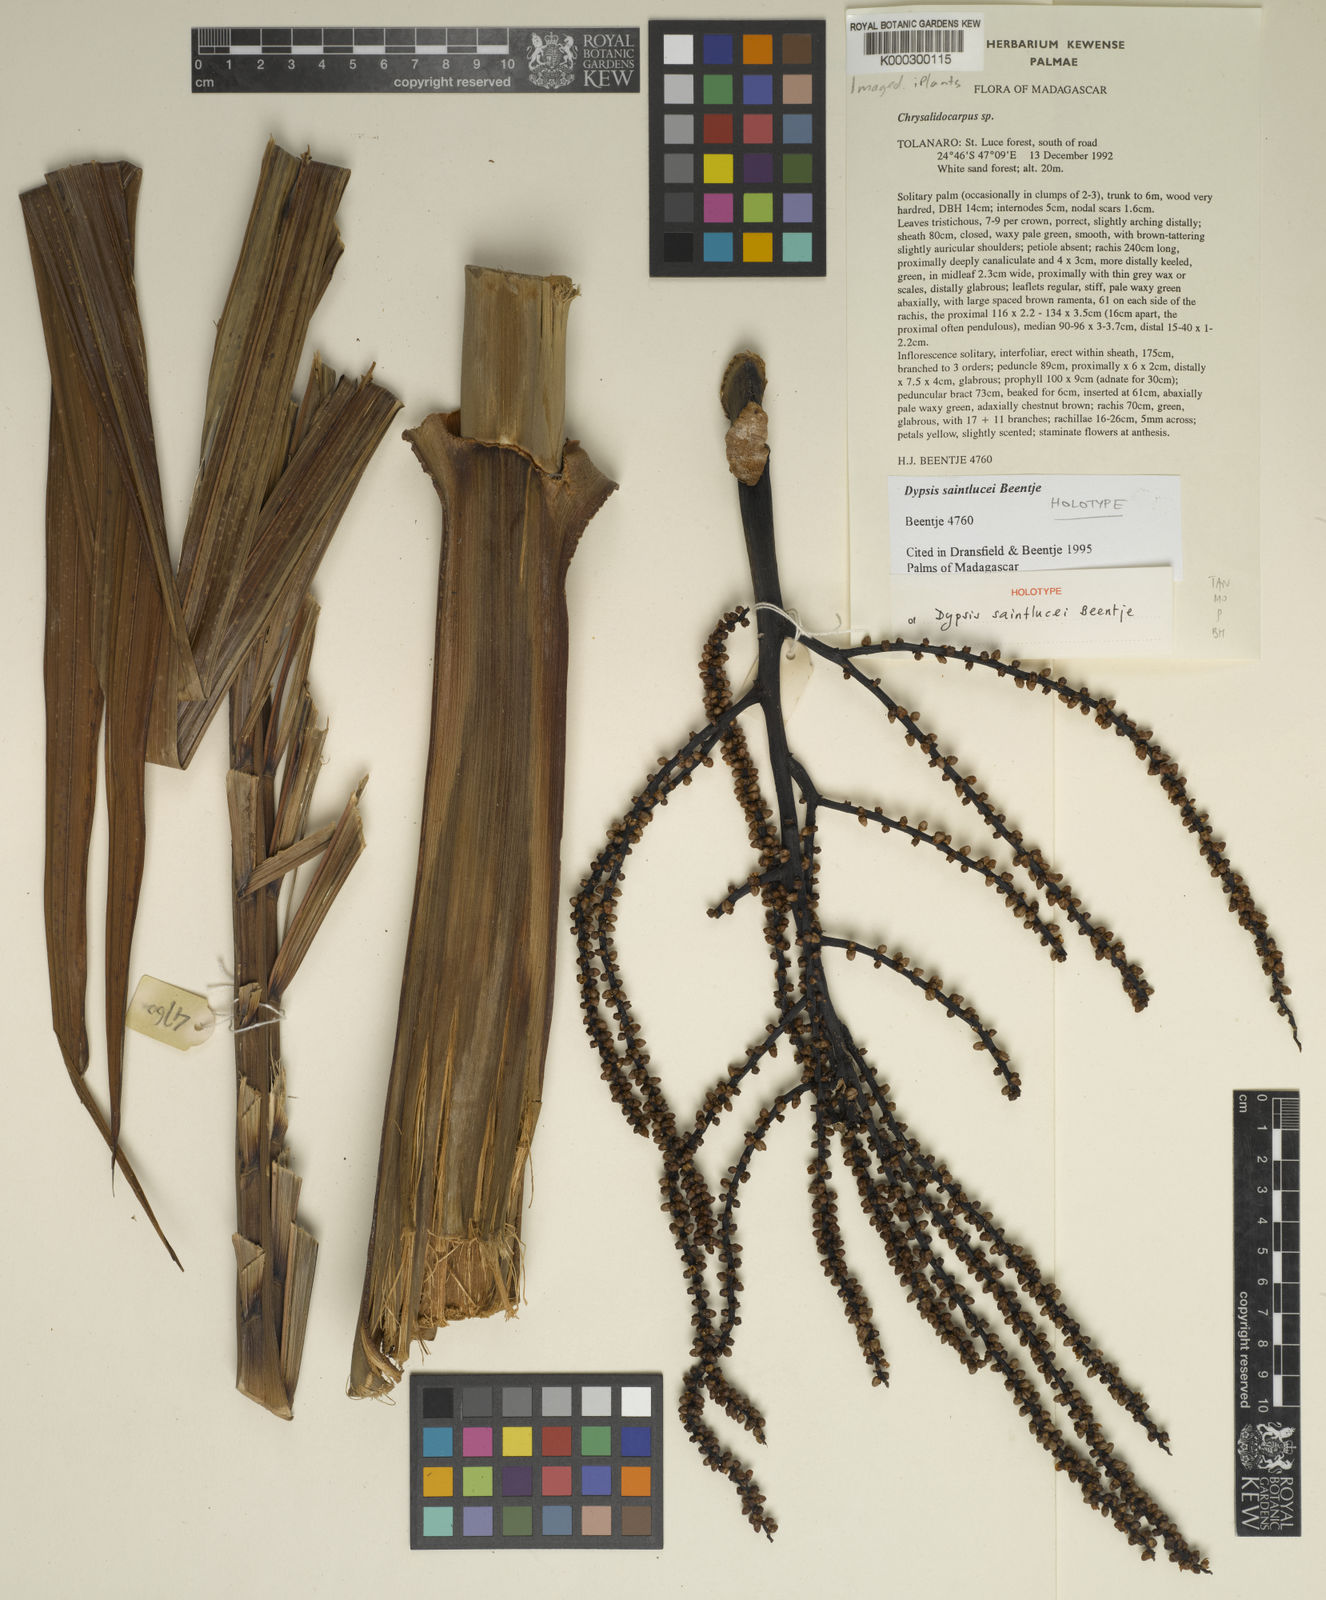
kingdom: Plantae
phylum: Tracheophyta
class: Liliopsida
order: Arecales
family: Arecaceae
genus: Dypsis
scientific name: Dypsis
